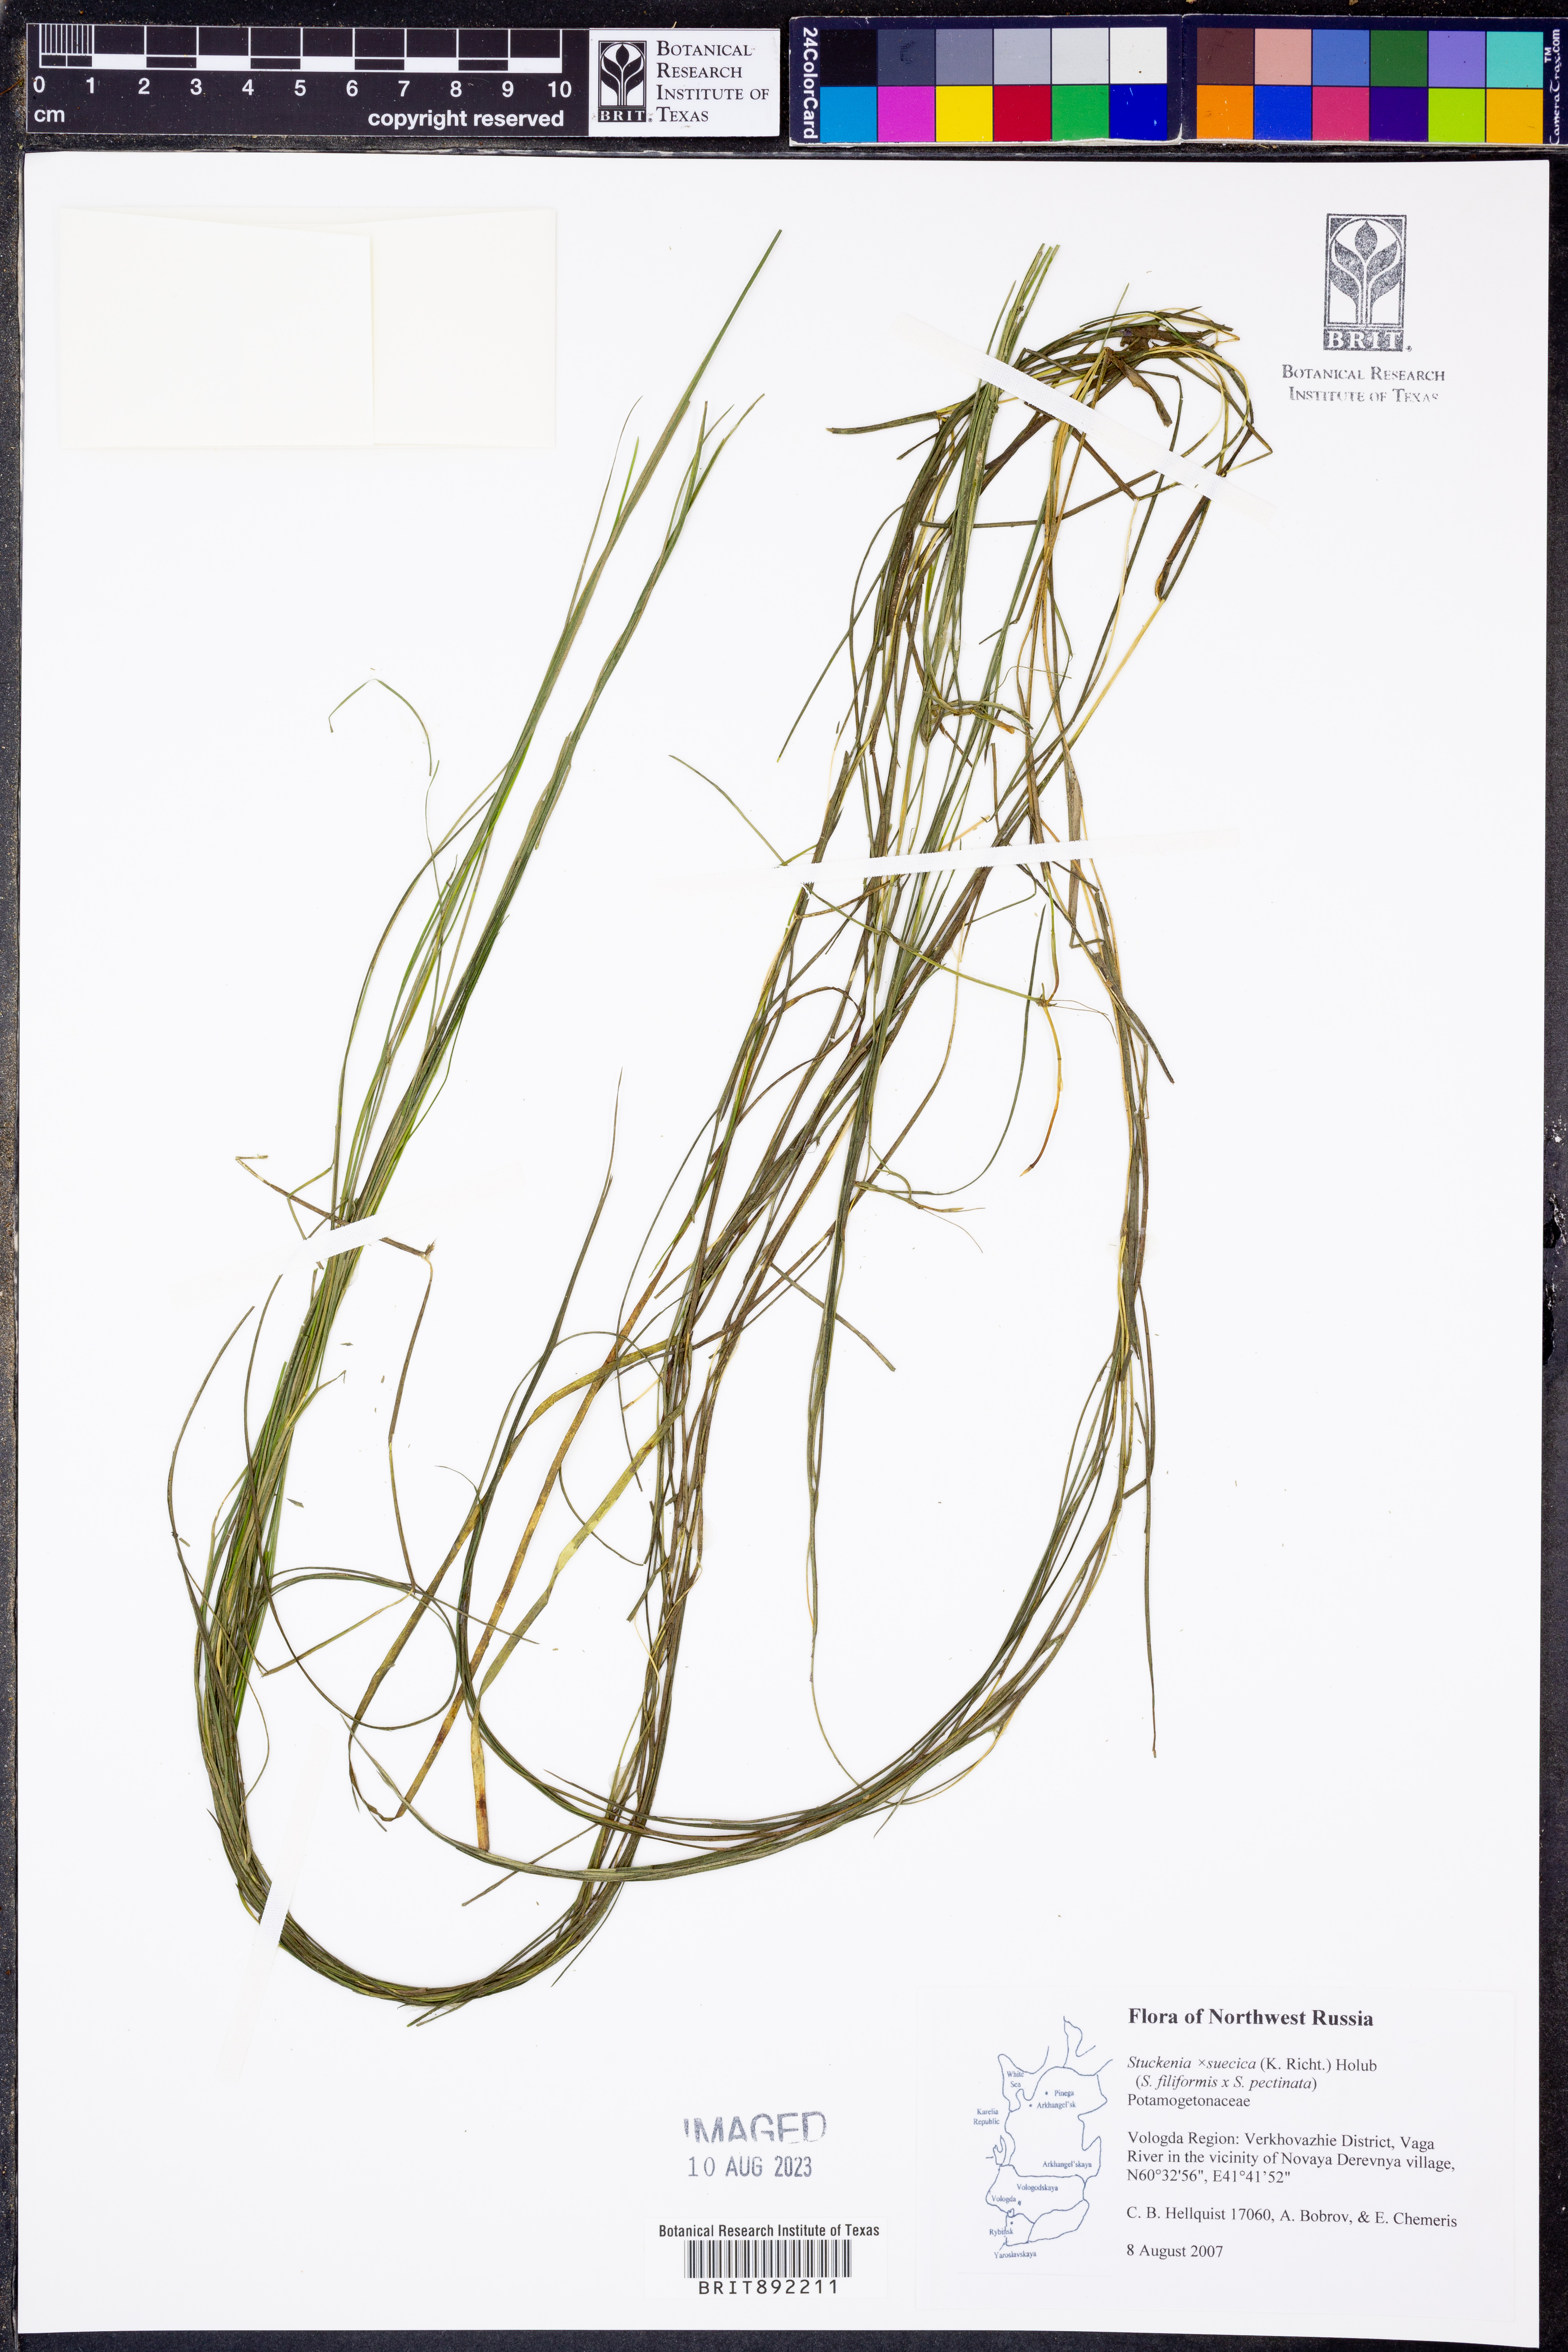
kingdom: Plantae
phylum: Tracheophyta
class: Liliopsida
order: Alismatales
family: Potamogetonaceae
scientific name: Potamogetonaceae
